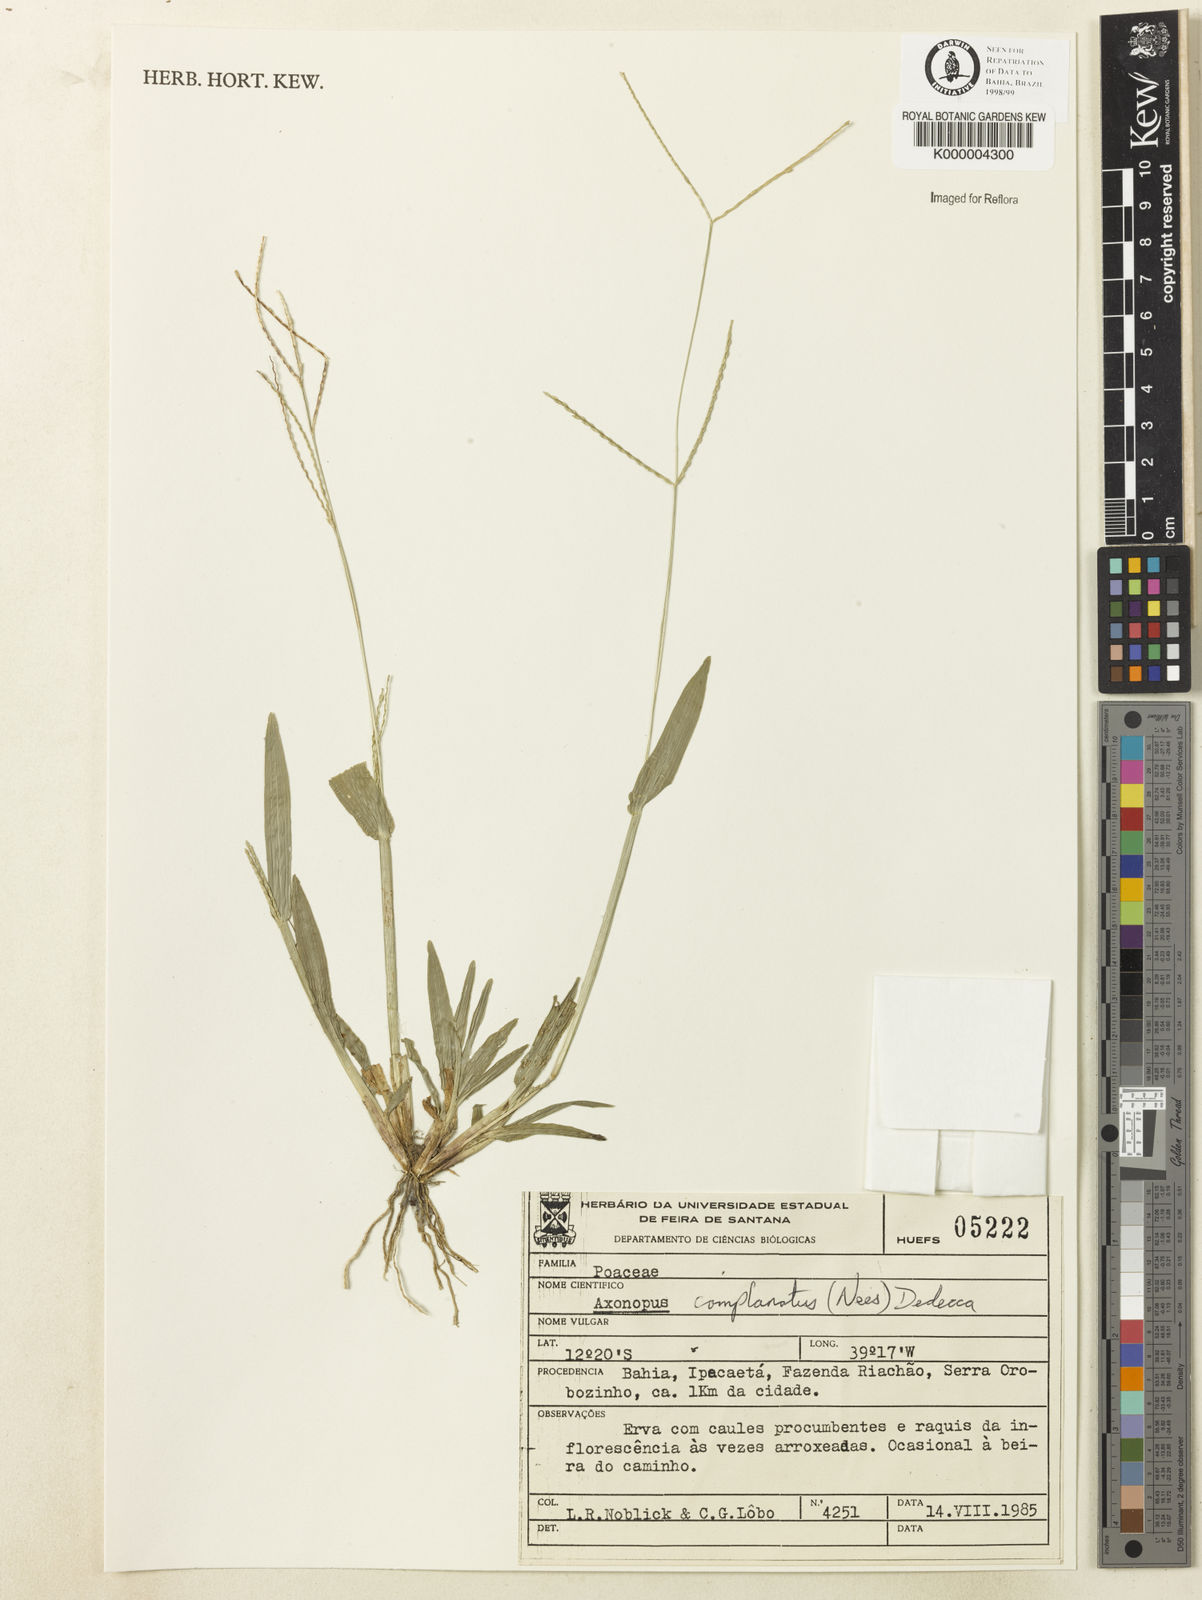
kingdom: Plantae
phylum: Tracheophyta
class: Liliopsida
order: Poales
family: Poaceae
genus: Axonopus
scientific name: Axonopus complanatus
